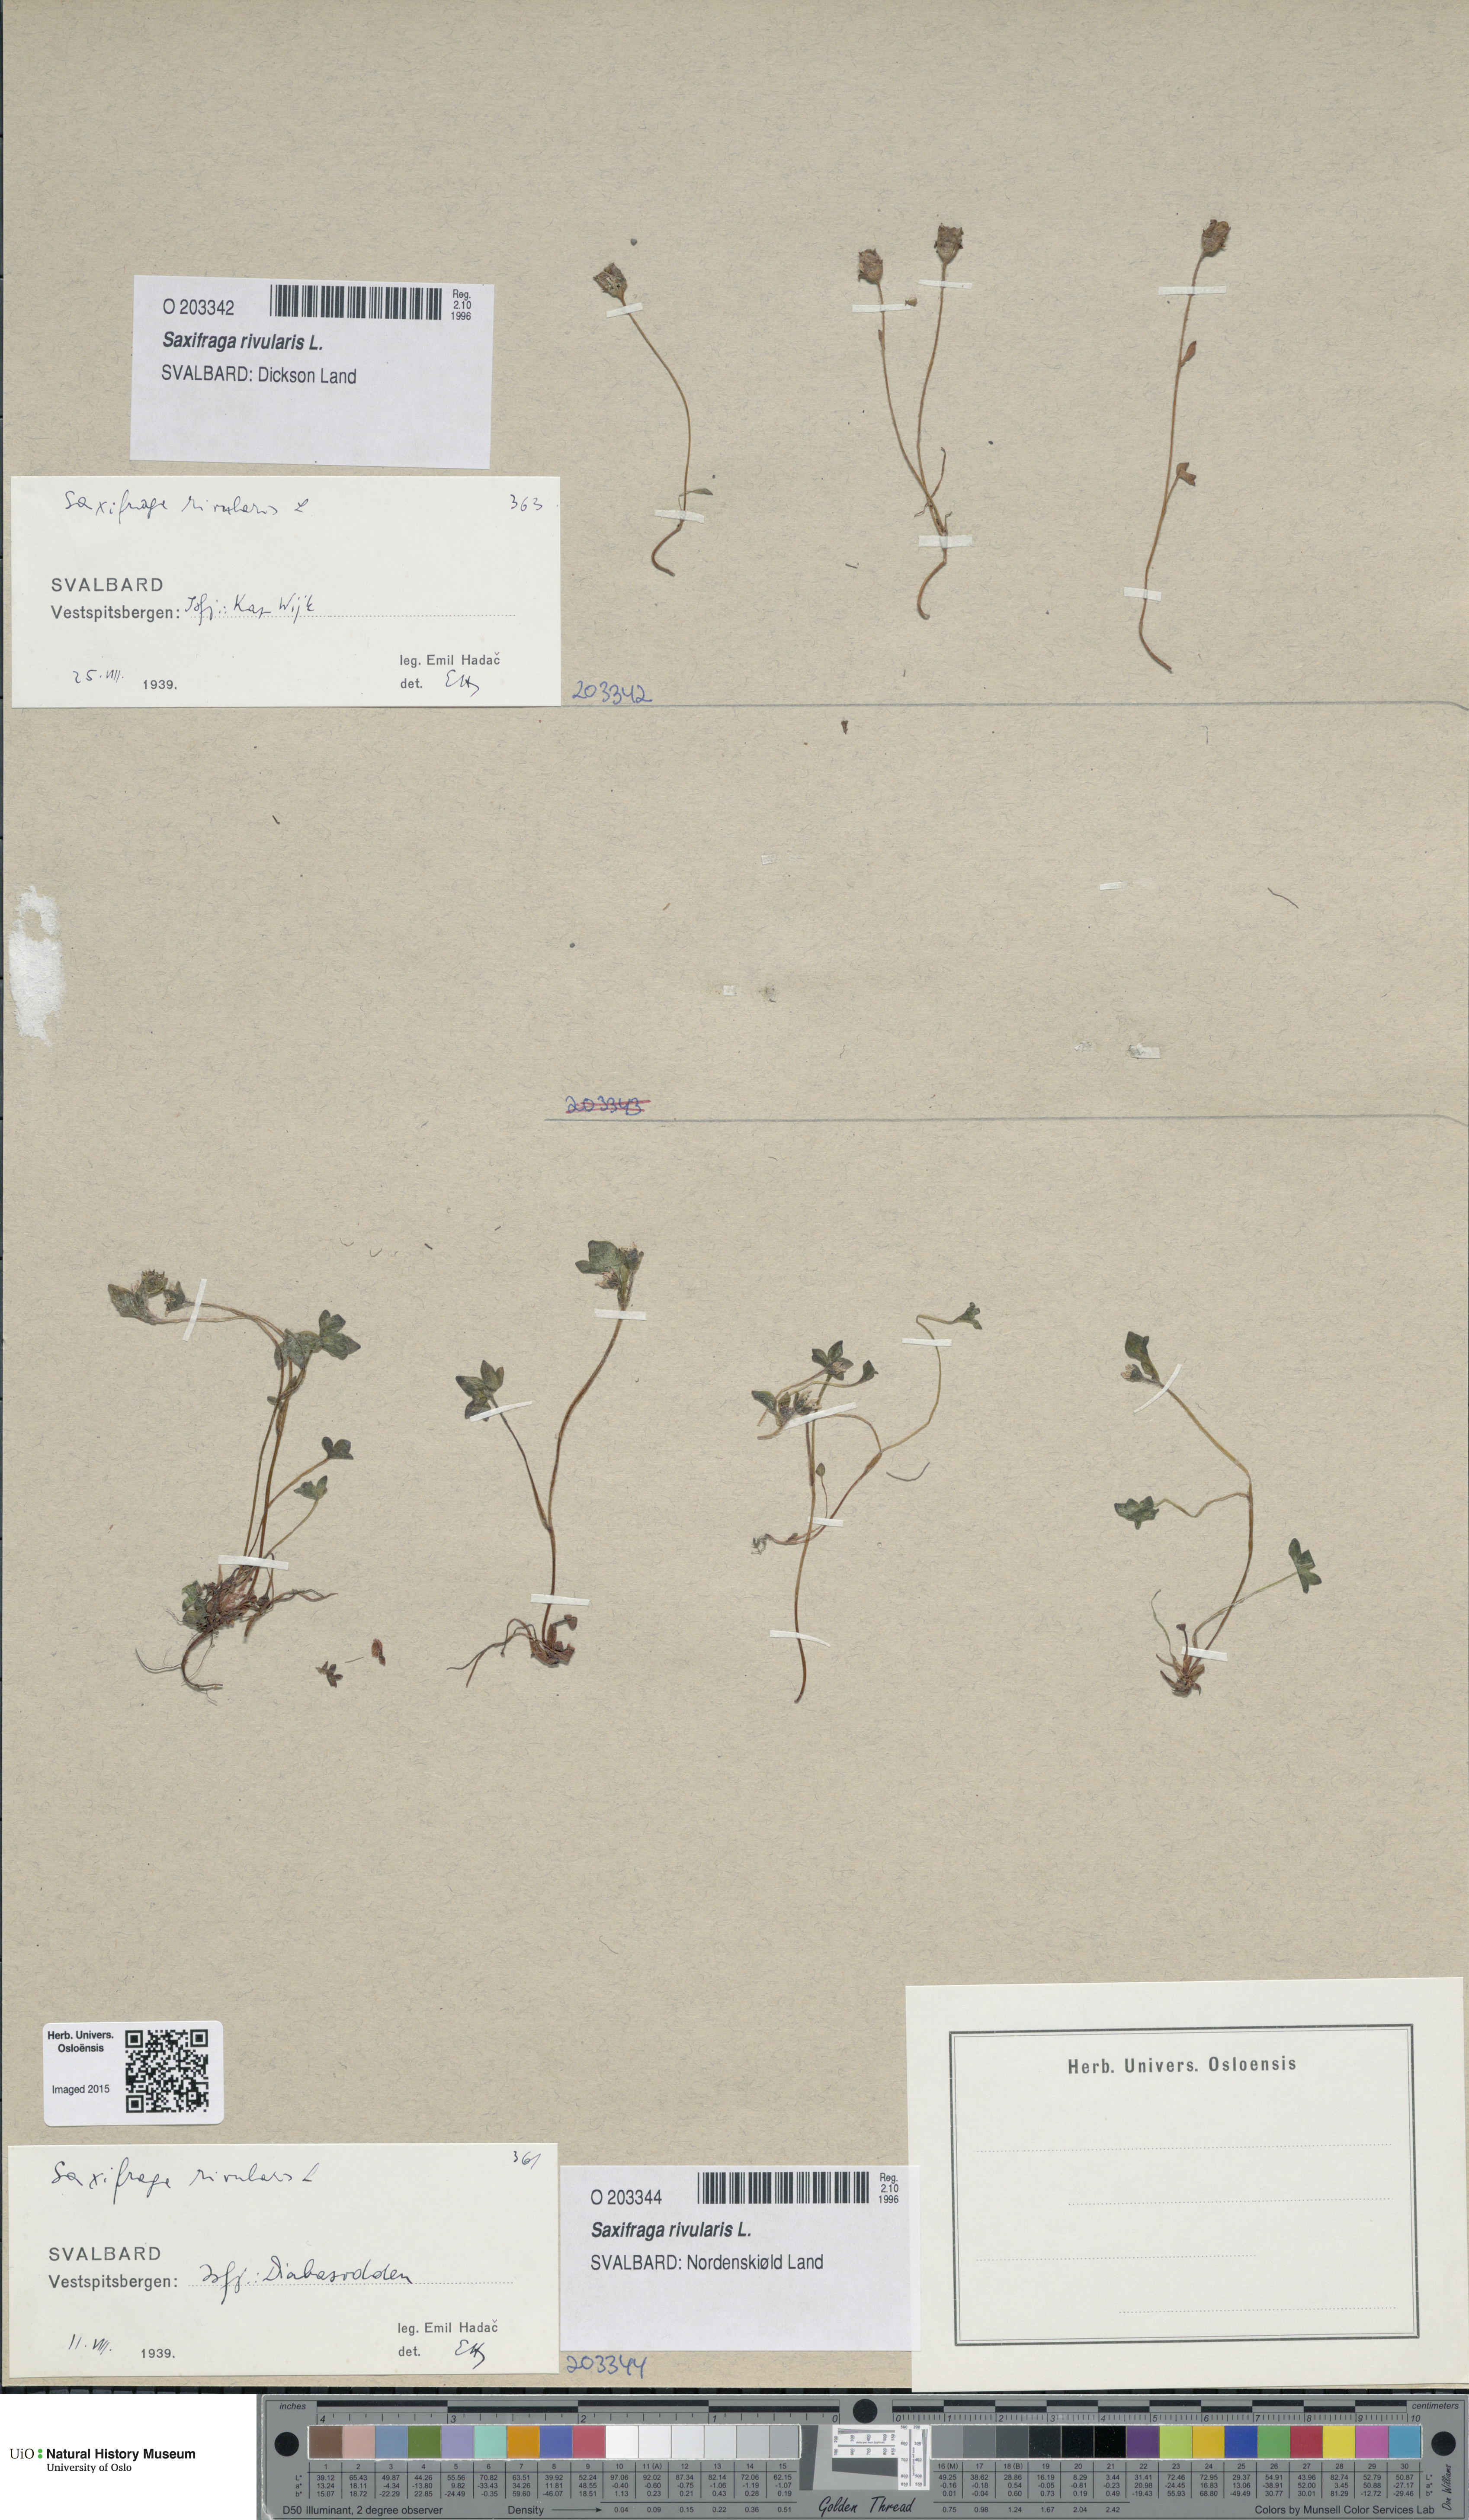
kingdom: Plantae
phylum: Tracheophyta
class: Magnoliopsida
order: Saxifragales
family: Saxifragaceae
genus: Saxifraga
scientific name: Saxifraga rivularis
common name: Highland saxifrage
